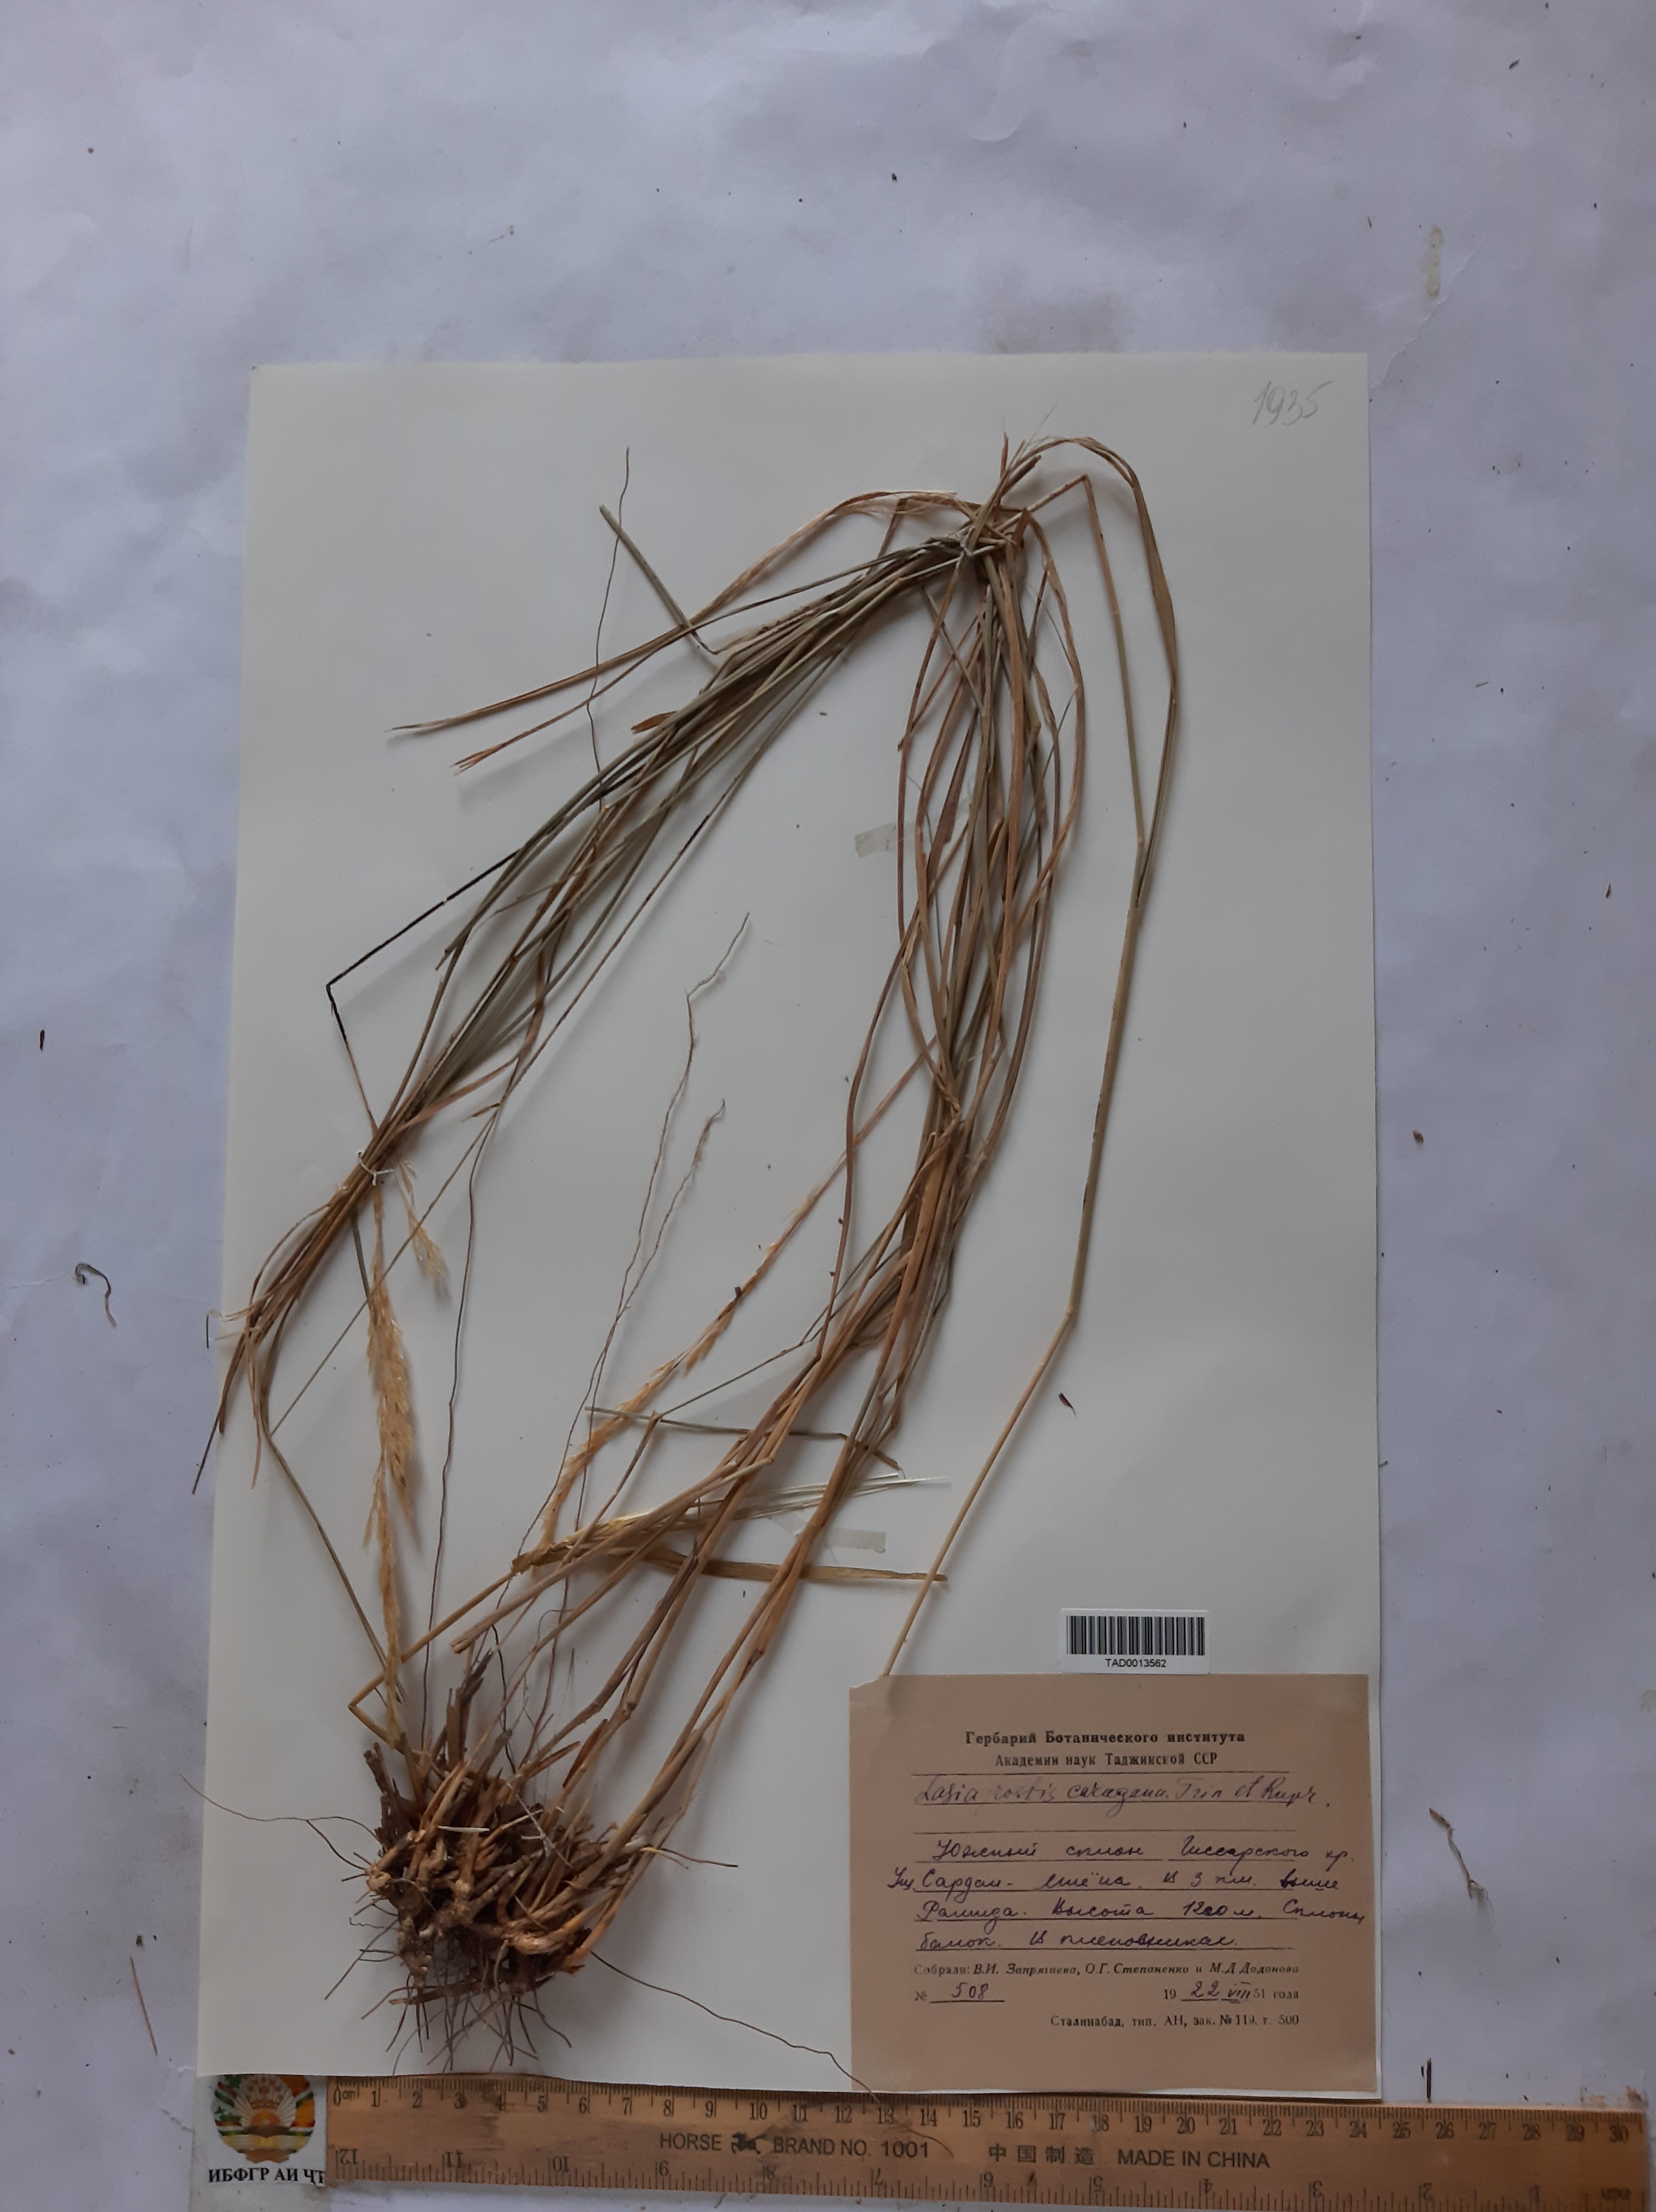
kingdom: Plantae
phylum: Tracheophyta
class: Liliopsida
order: Poales
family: Poaceae
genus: Stipa
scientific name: Stipa conferta
